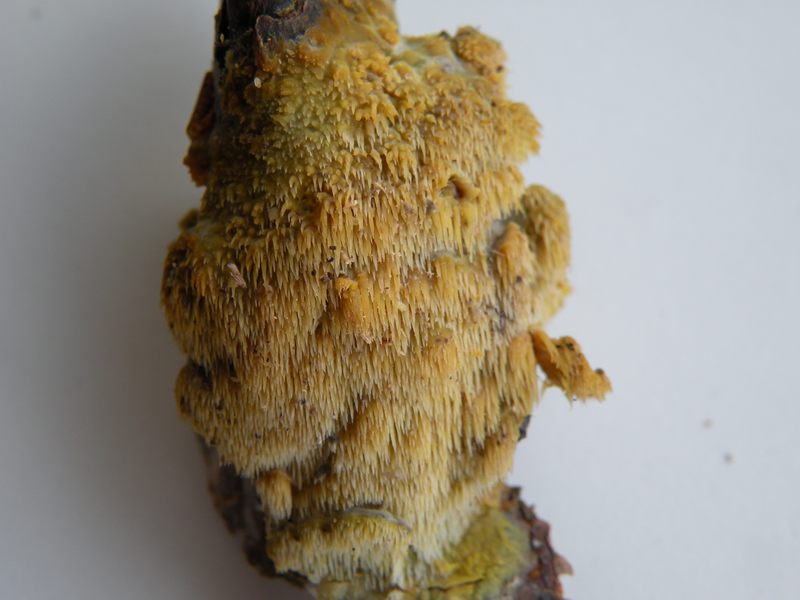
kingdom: Fungi
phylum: Basidiomycota
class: Agaricomycetes
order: Polyporales
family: Meruliaceae
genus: Mycoacia
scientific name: Mycoacia uda
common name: citrongul vokspig
